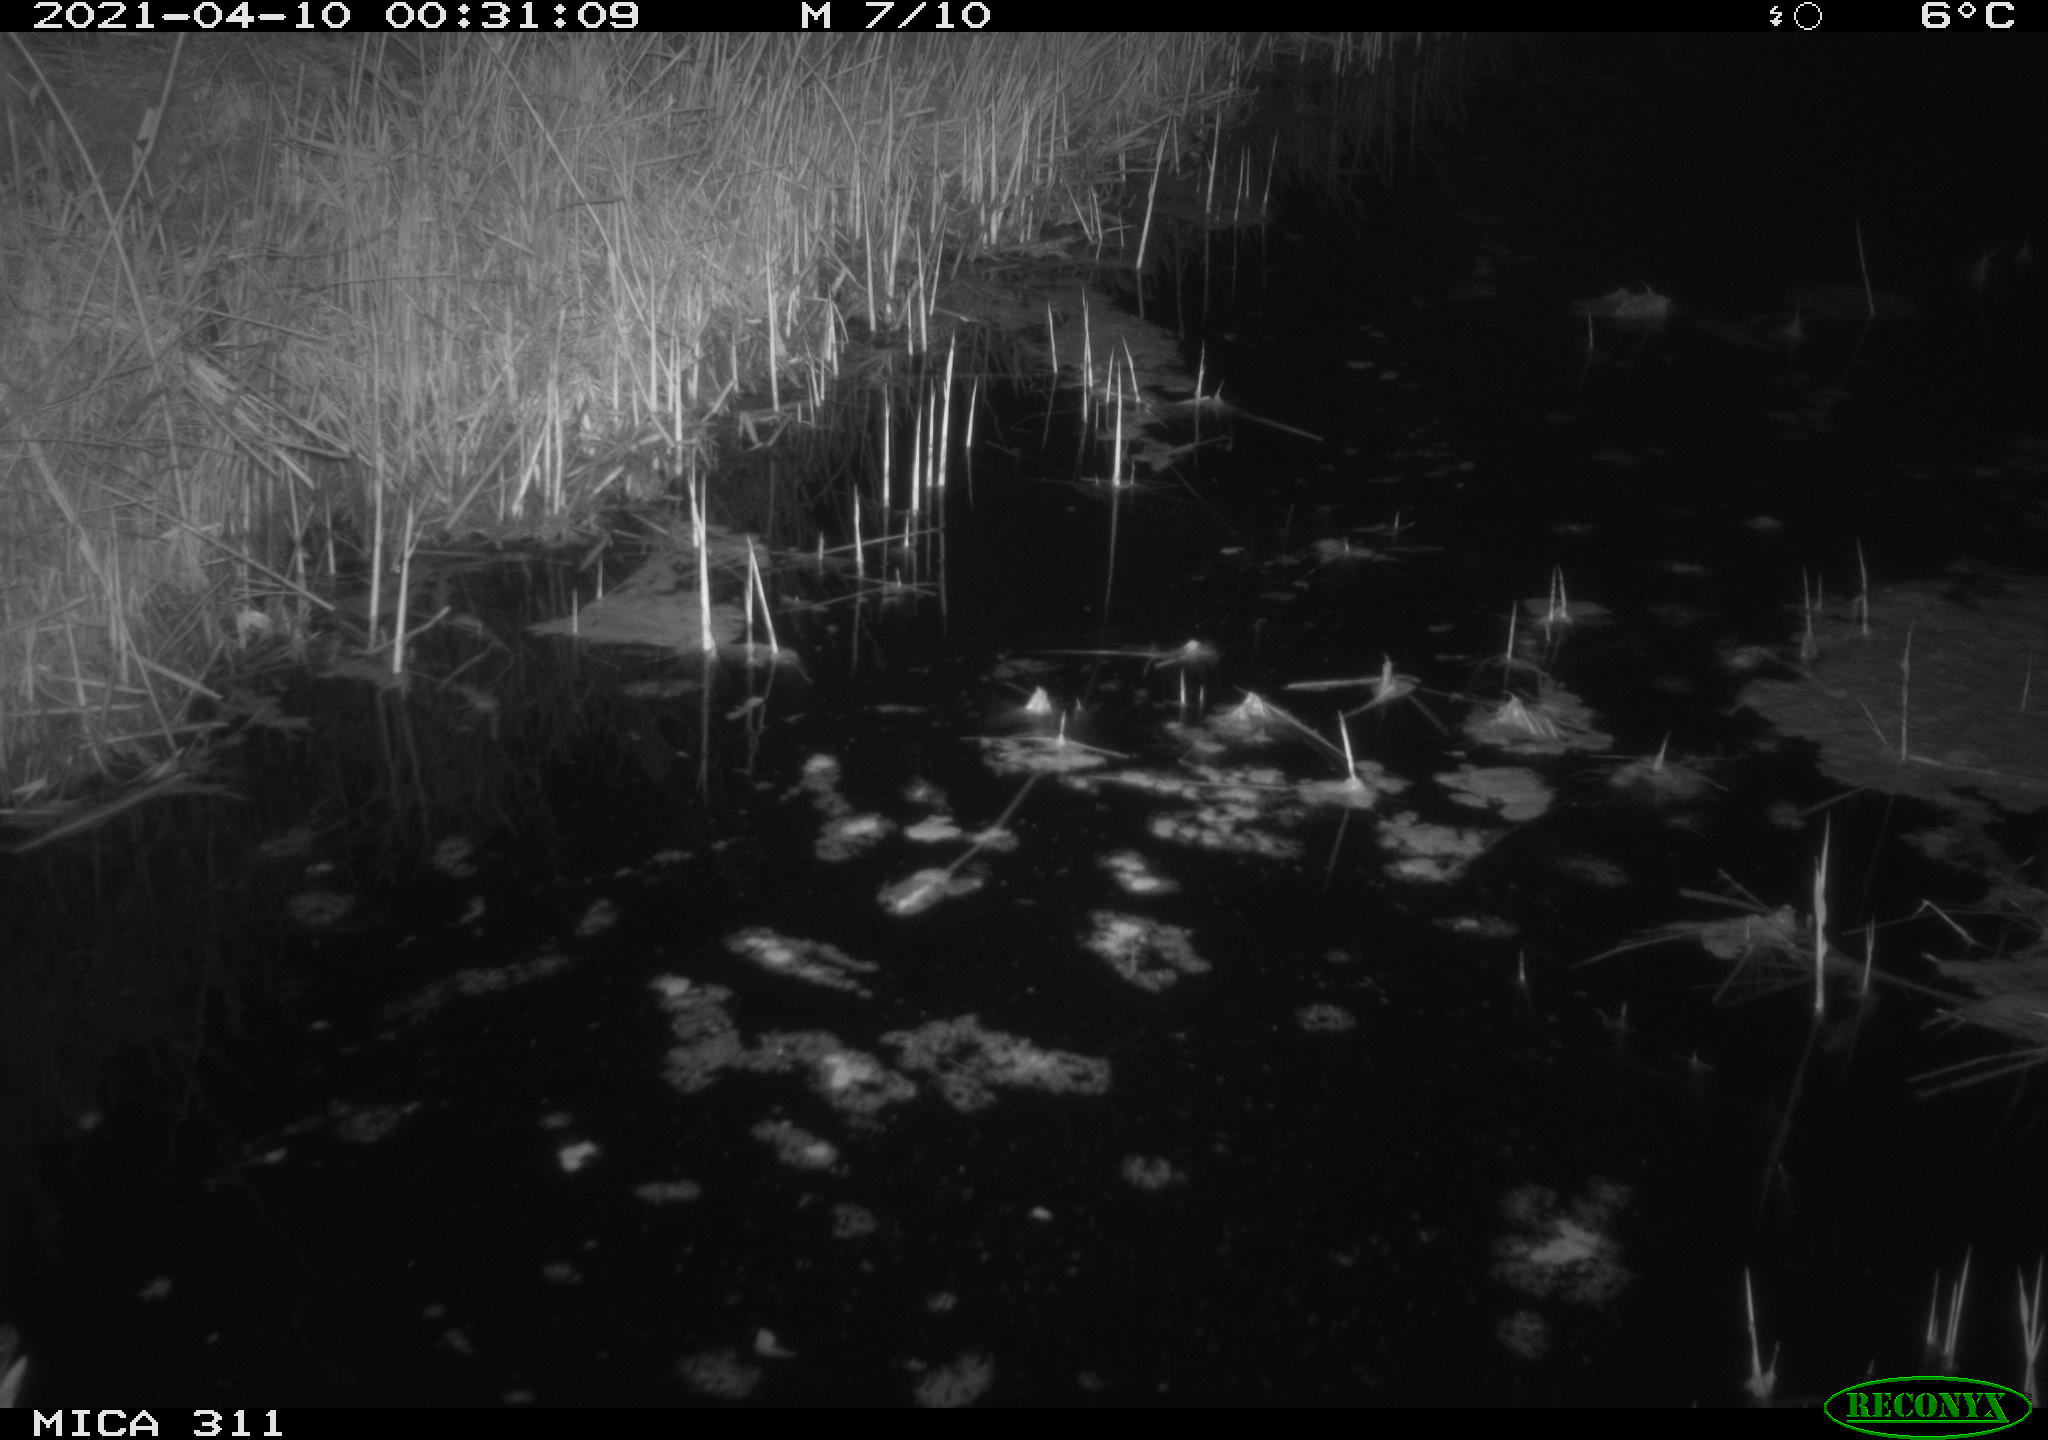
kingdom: Animalia
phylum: Chordata
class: Aves
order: Gruiformes
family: Rallidae
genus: Gallinula
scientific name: Gallinula chloropus
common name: Common moorhen
